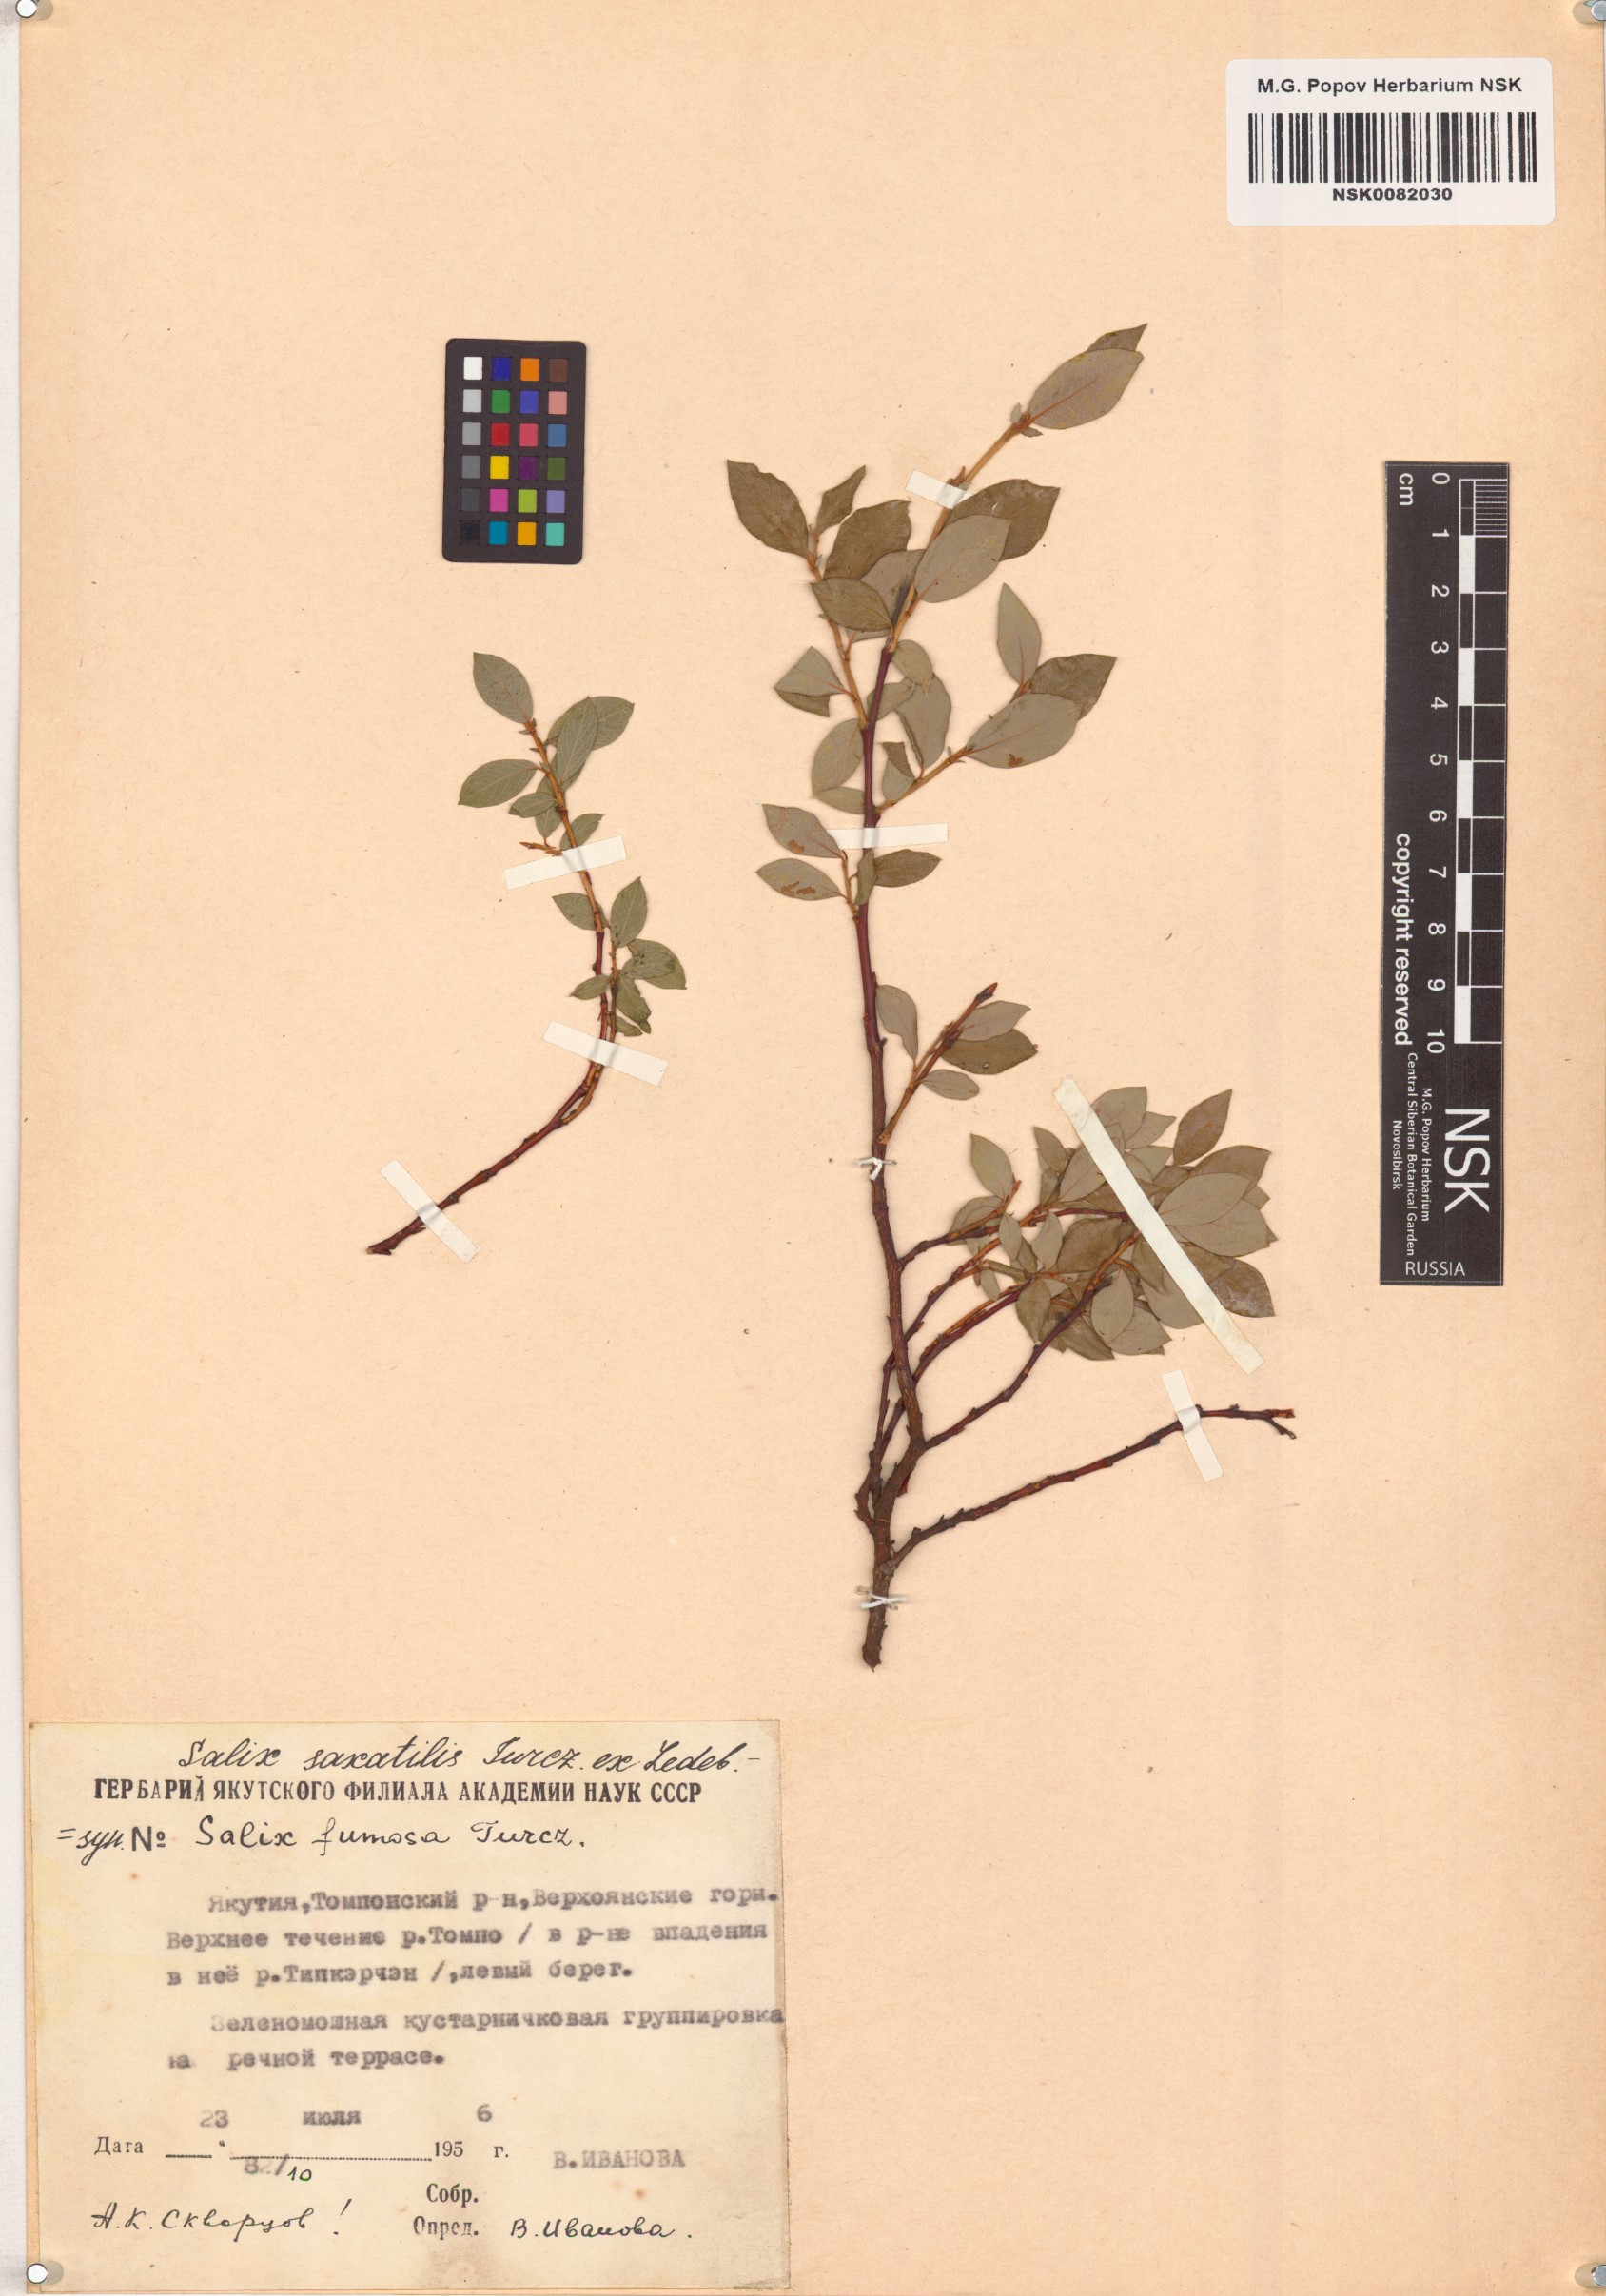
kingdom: Plantae
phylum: Tracheophyta
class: Magnoliopsida
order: Malpighiales
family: Salicaceae
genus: Salix
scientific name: Salix saxatilis
